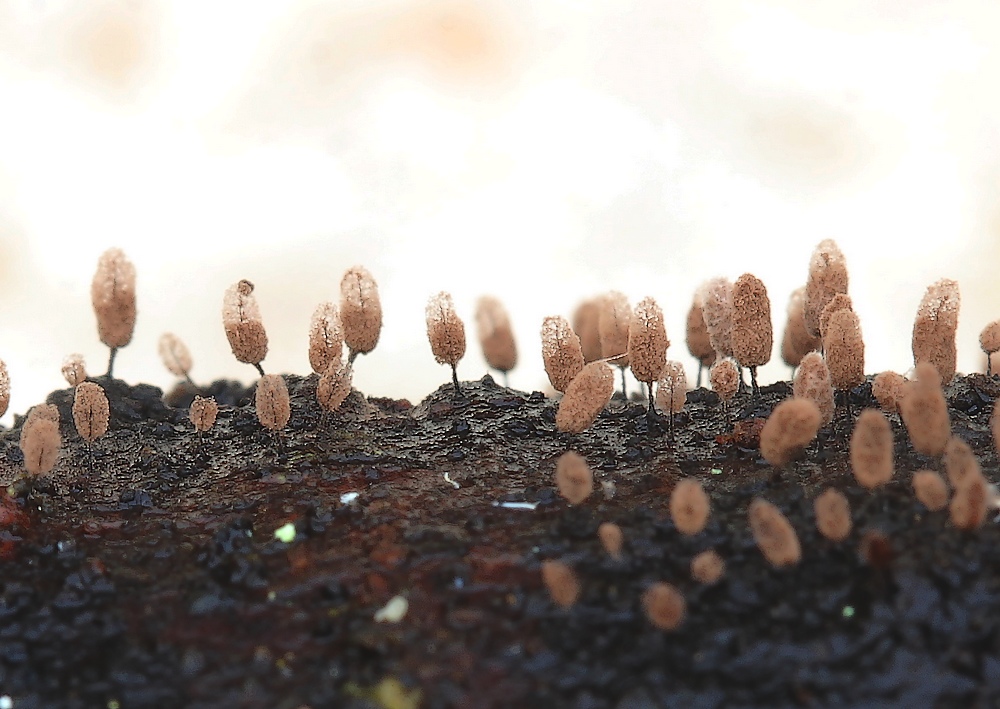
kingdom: Protozoa
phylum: Mycetozoa
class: Myxomycetes
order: Stemonitidales
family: Stemonitidaceae
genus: Comatricha
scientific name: Comatricha laxa
